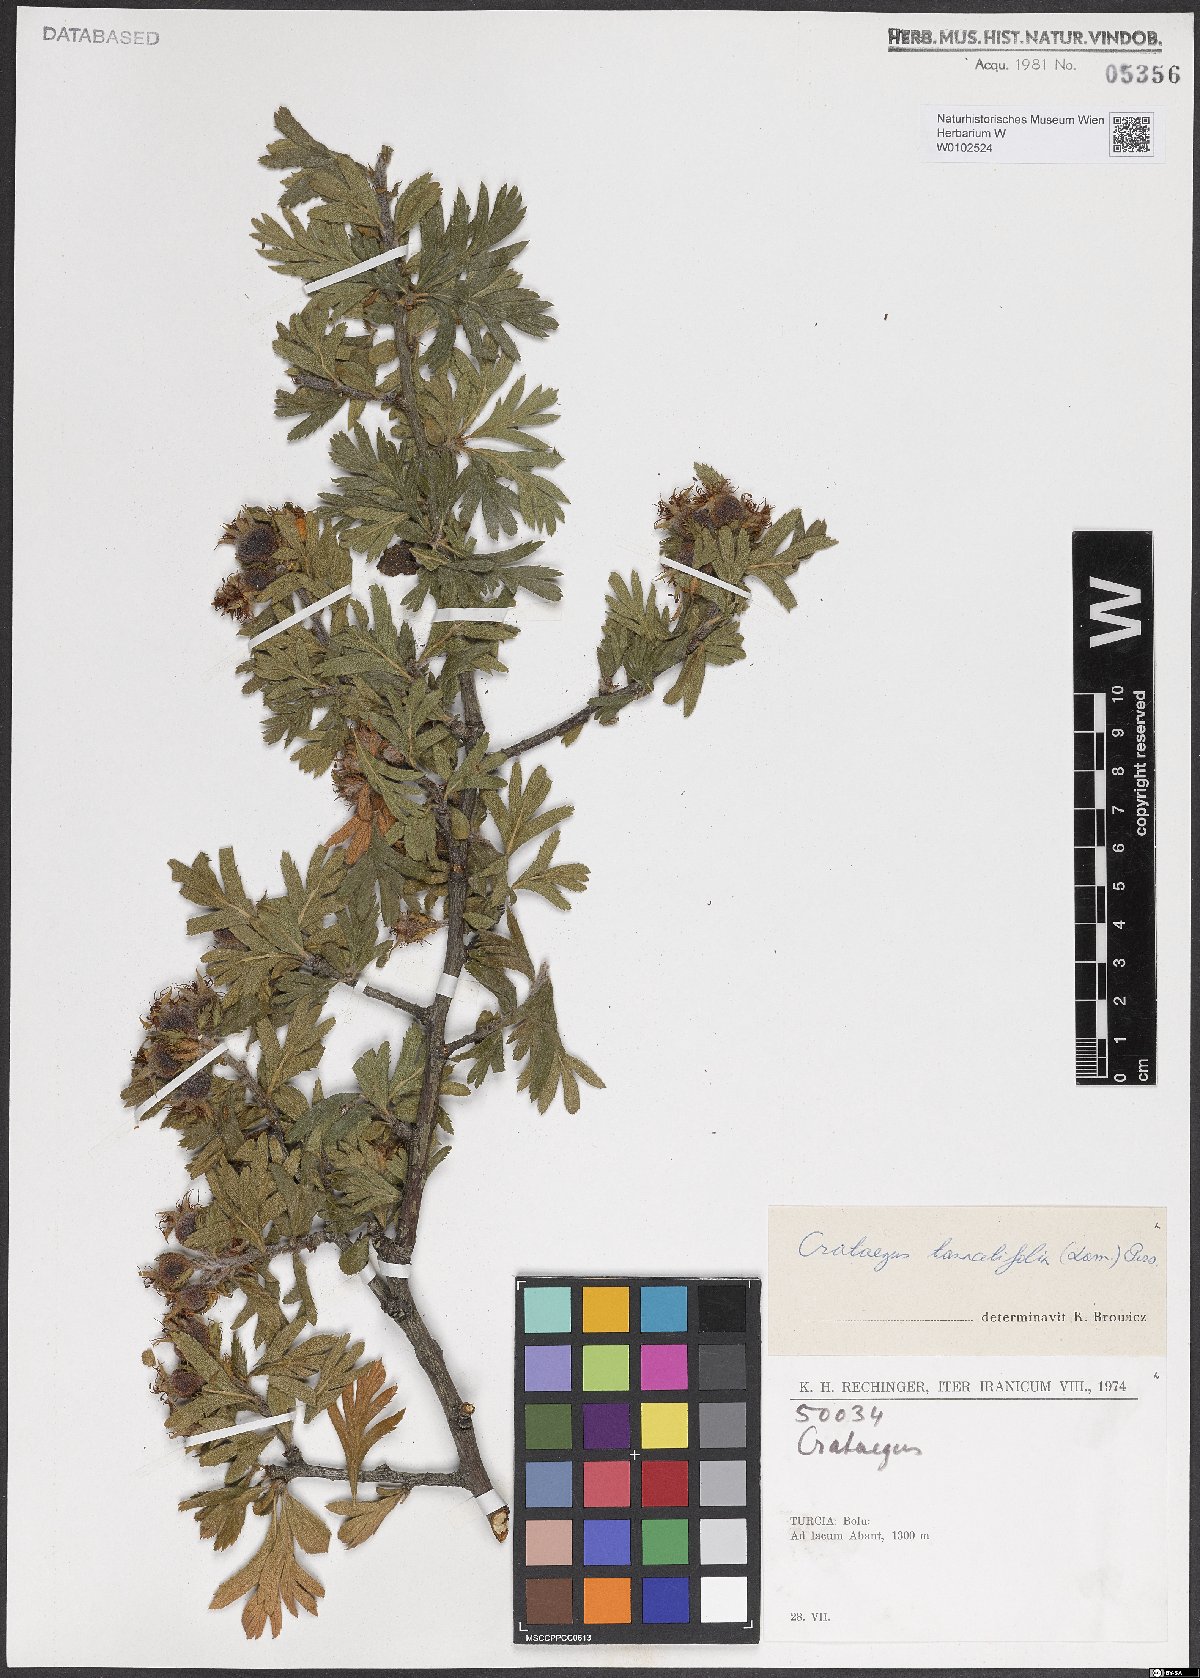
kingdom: Plantae
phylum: Tracheophyta
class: Magnoliopsida
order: Rosales
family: Rosaceae
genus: Crataegus
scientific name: Crataegus tanacetifolia
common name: Tansy-leaved thorn
